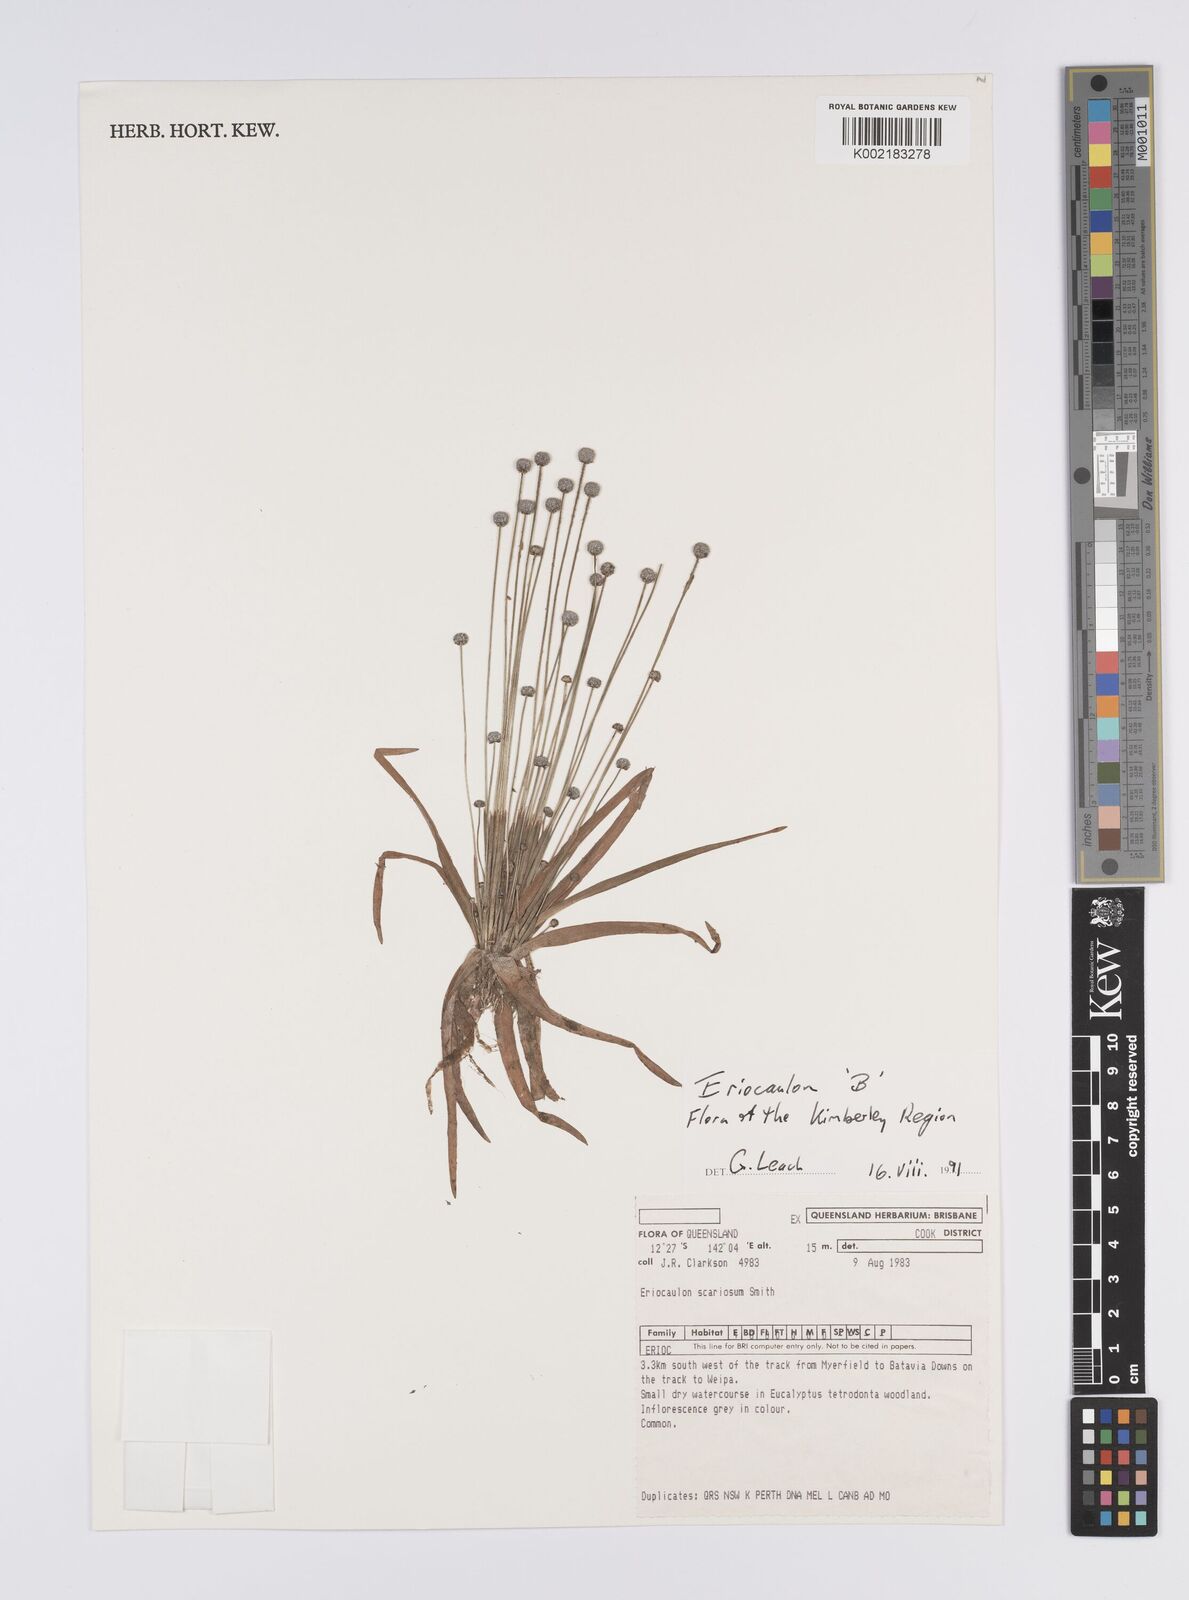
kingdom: Plantae
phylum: Tracheophyta
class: Liliopsida
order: Poales
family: Eriocaulaceae
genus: Eriocaulon
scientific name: Eriocaulon
